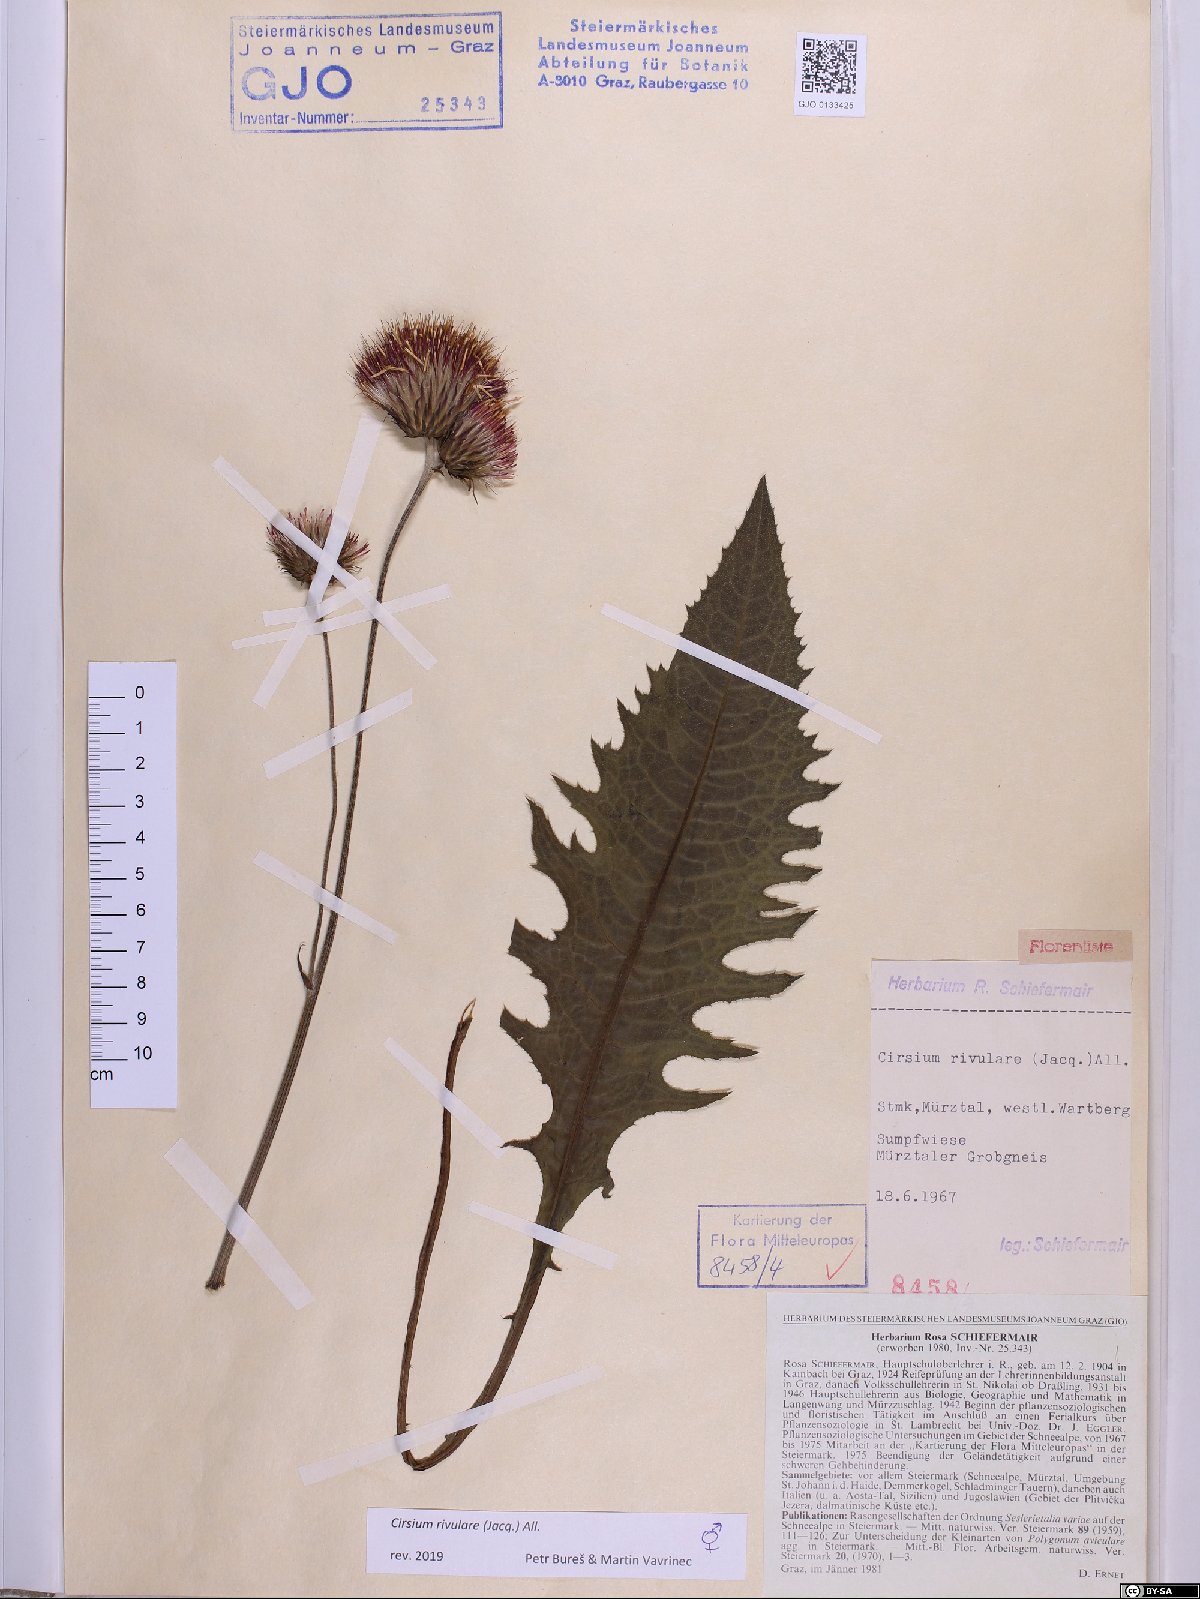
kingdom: Plantae
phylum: Tracheophyta
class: Magnoliopsida
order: Asterales
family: Asteraceae
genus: Cirsium
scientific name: Cirsium rivulare
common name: Brook thistle
